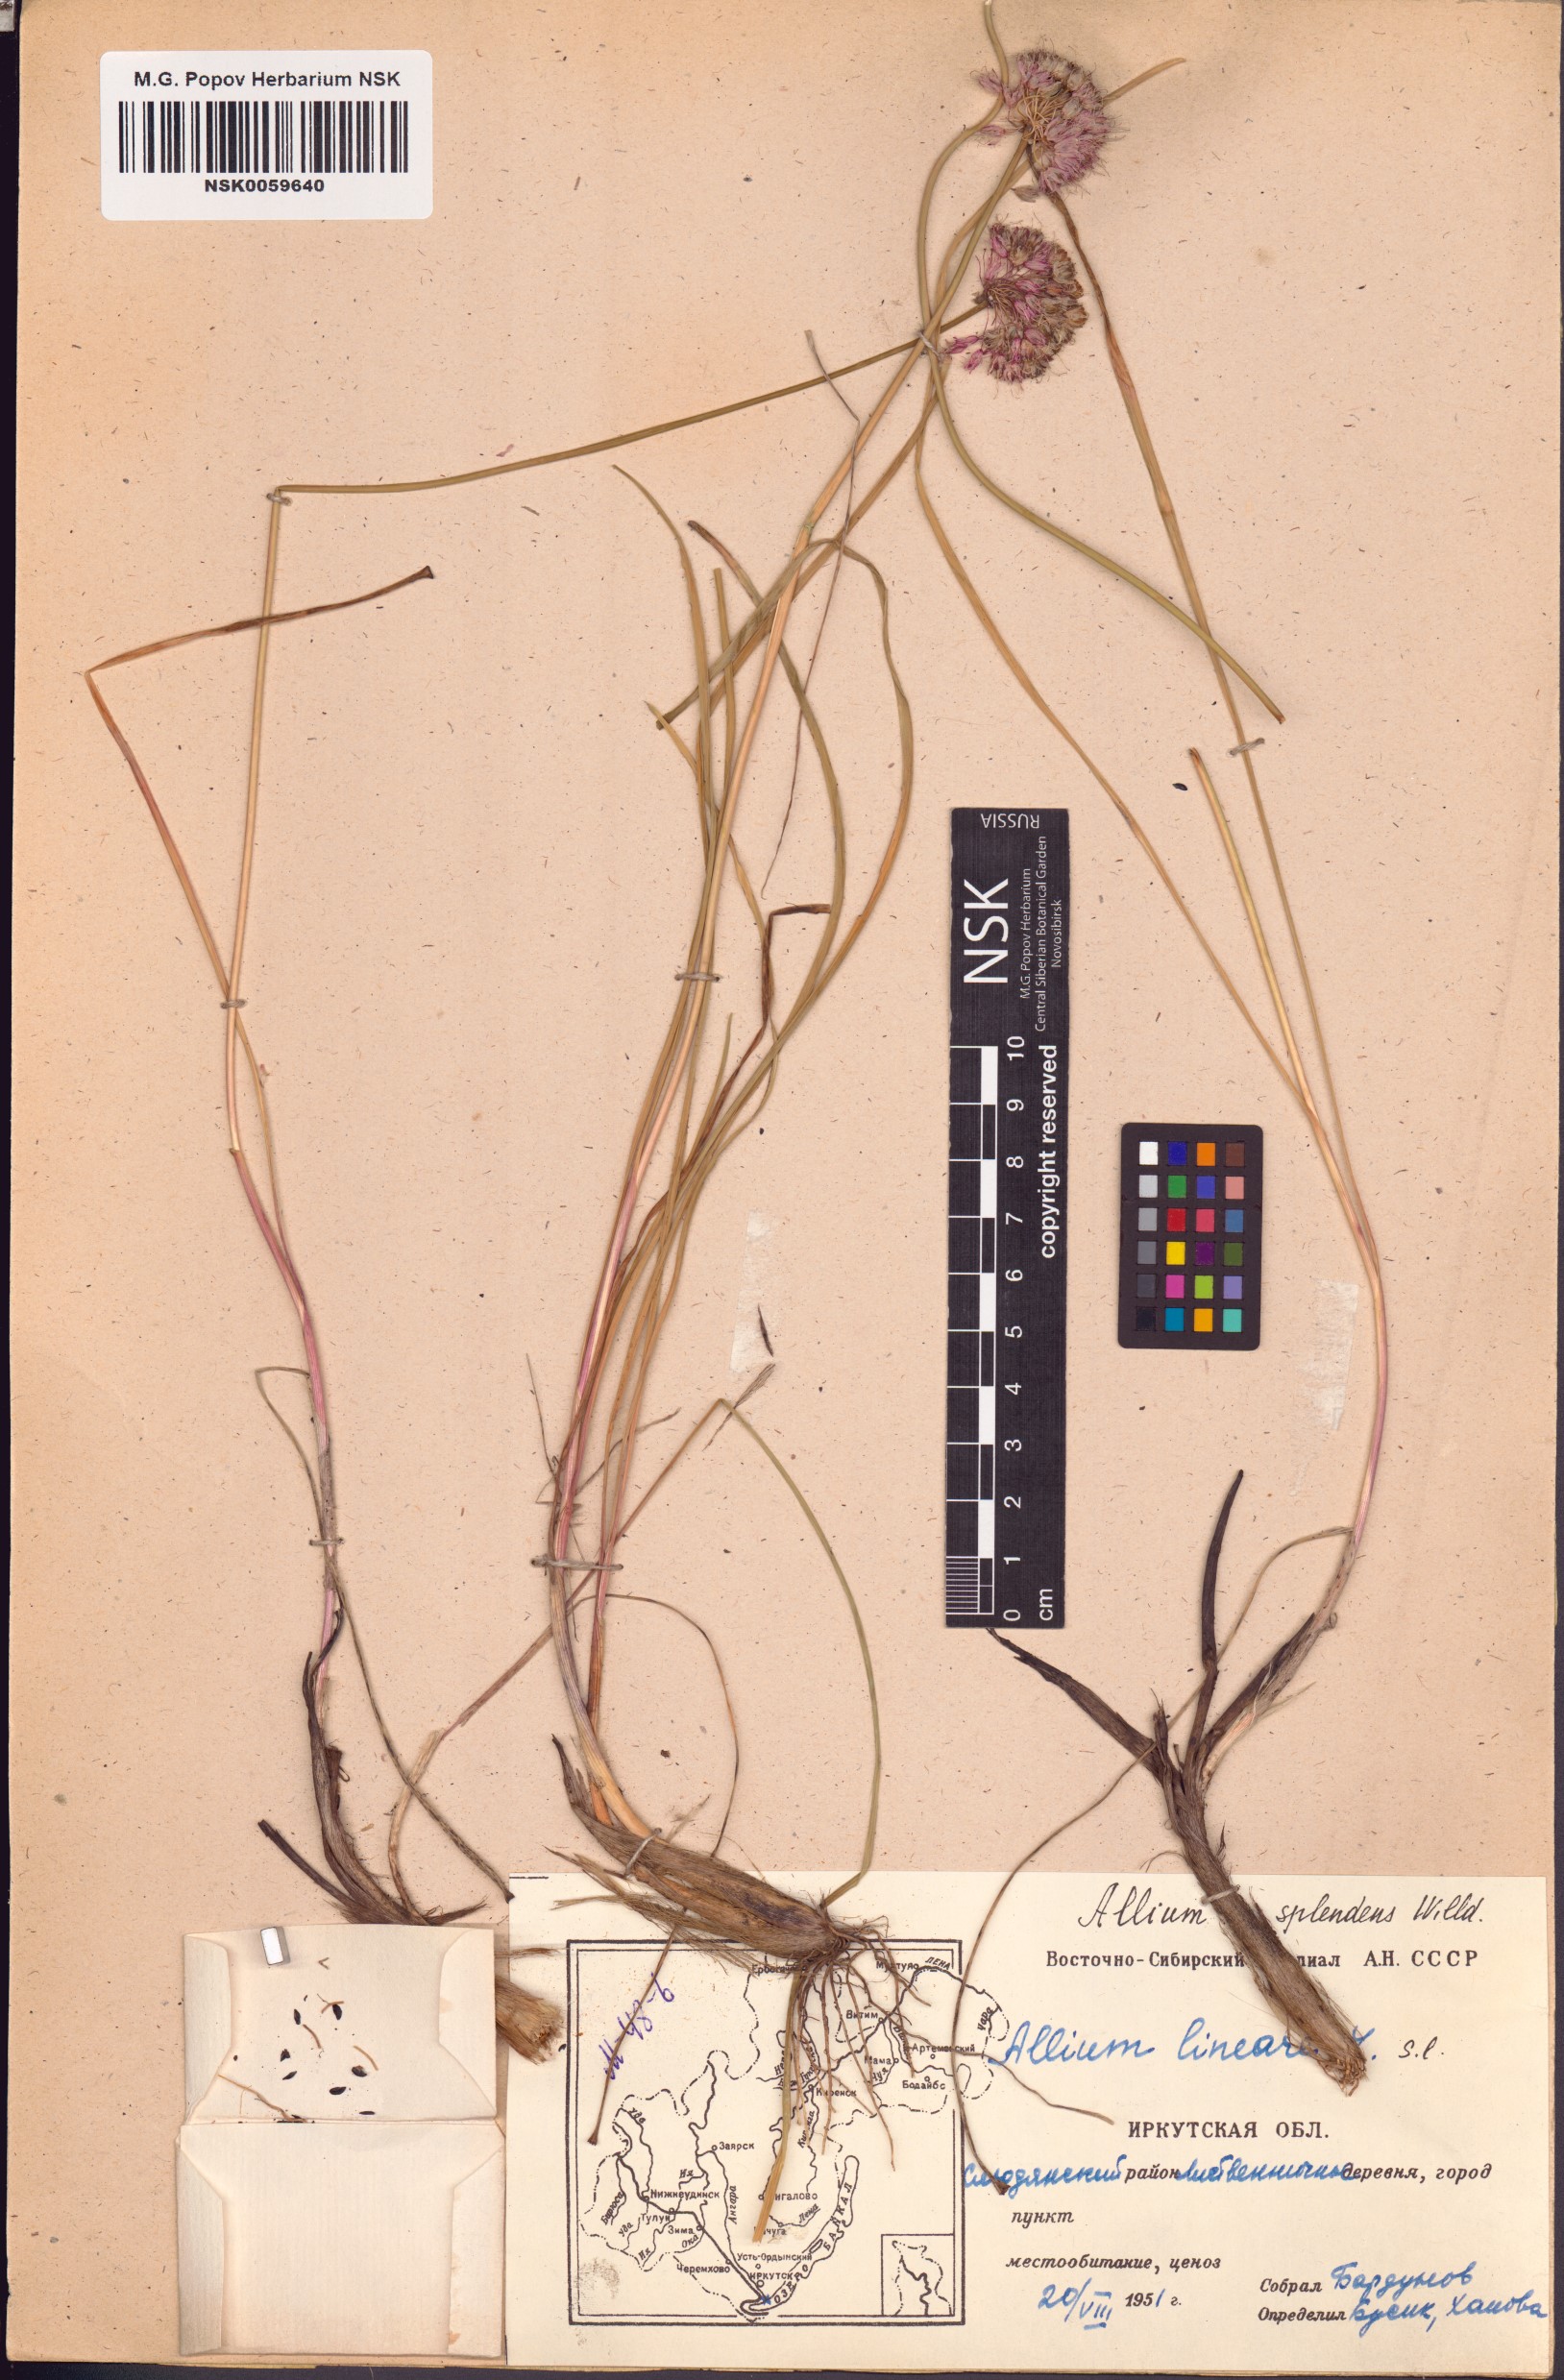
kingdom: Plantae
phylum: Tracheophyta
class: Liliopsida
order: Asparagales
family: Amaryllidaceae
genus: Allium
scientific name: Allium splendens
